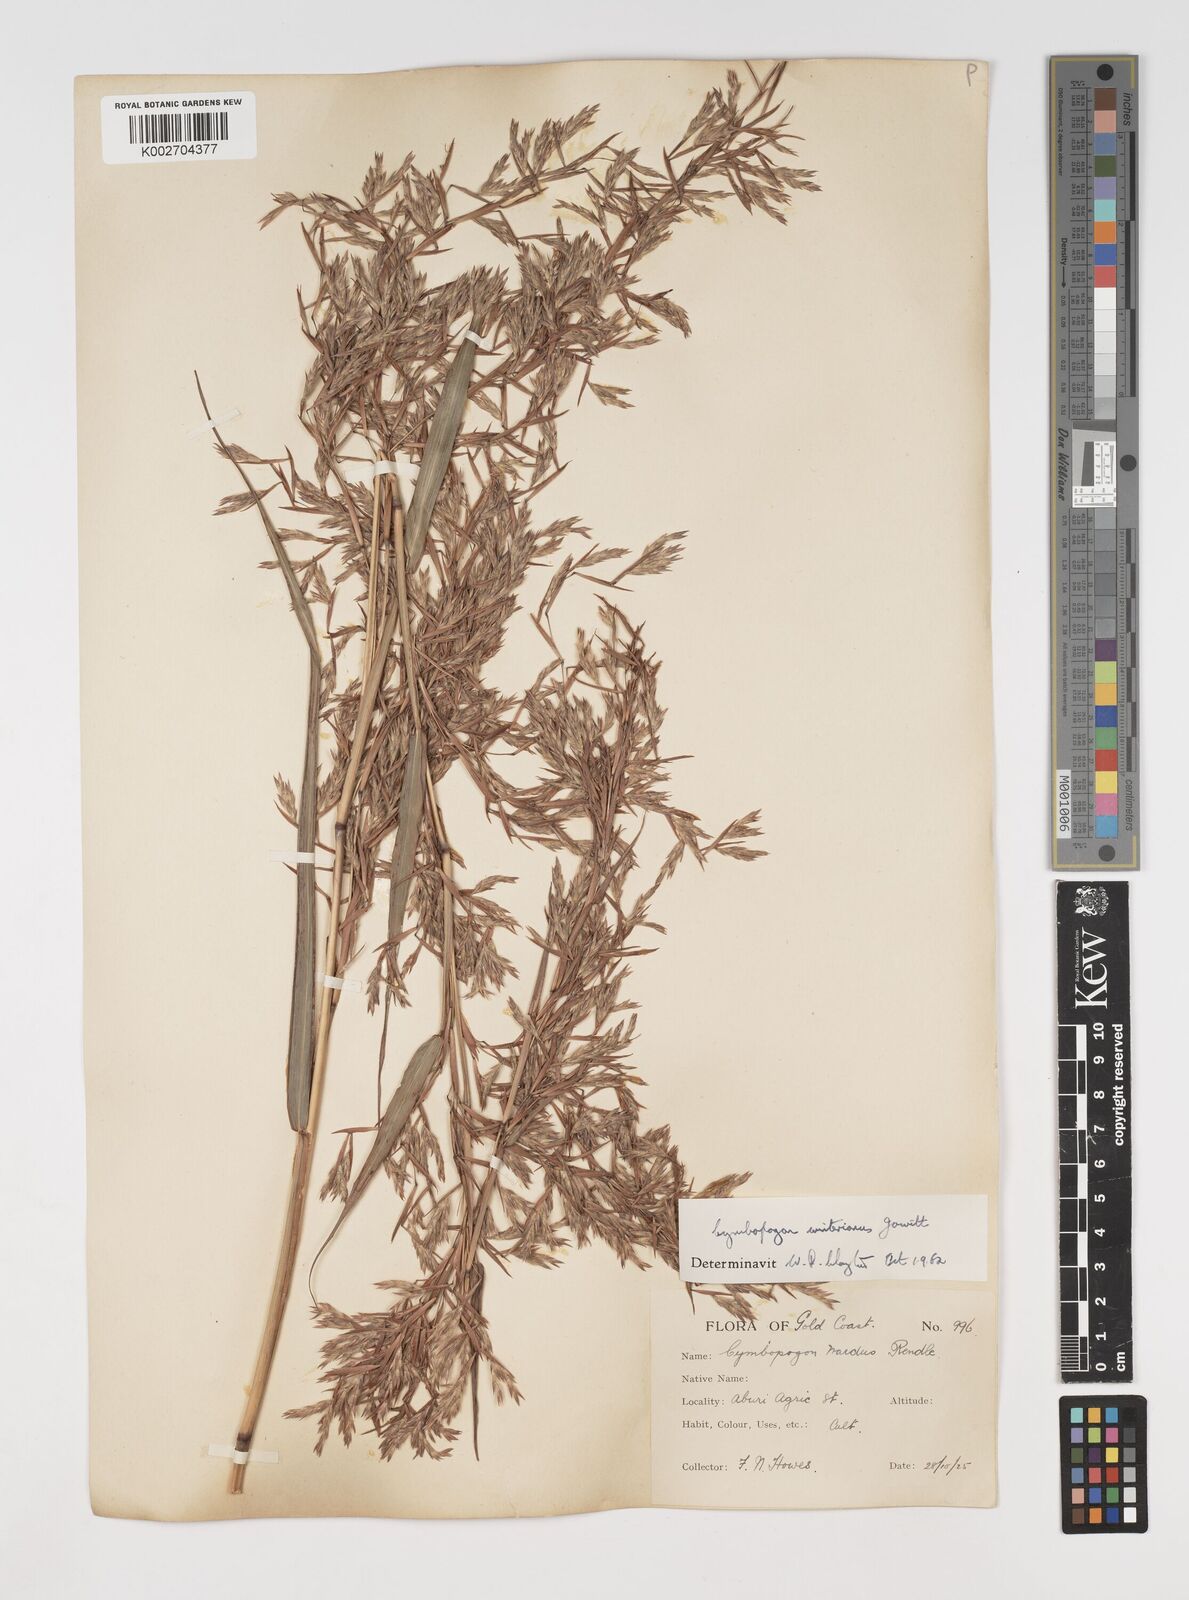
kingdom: Plantae
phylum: Tracheophyta
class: Liliopsida
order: Poales
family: Poaceae
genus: Cymbopogon
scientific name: Cymbopogon winterianus
